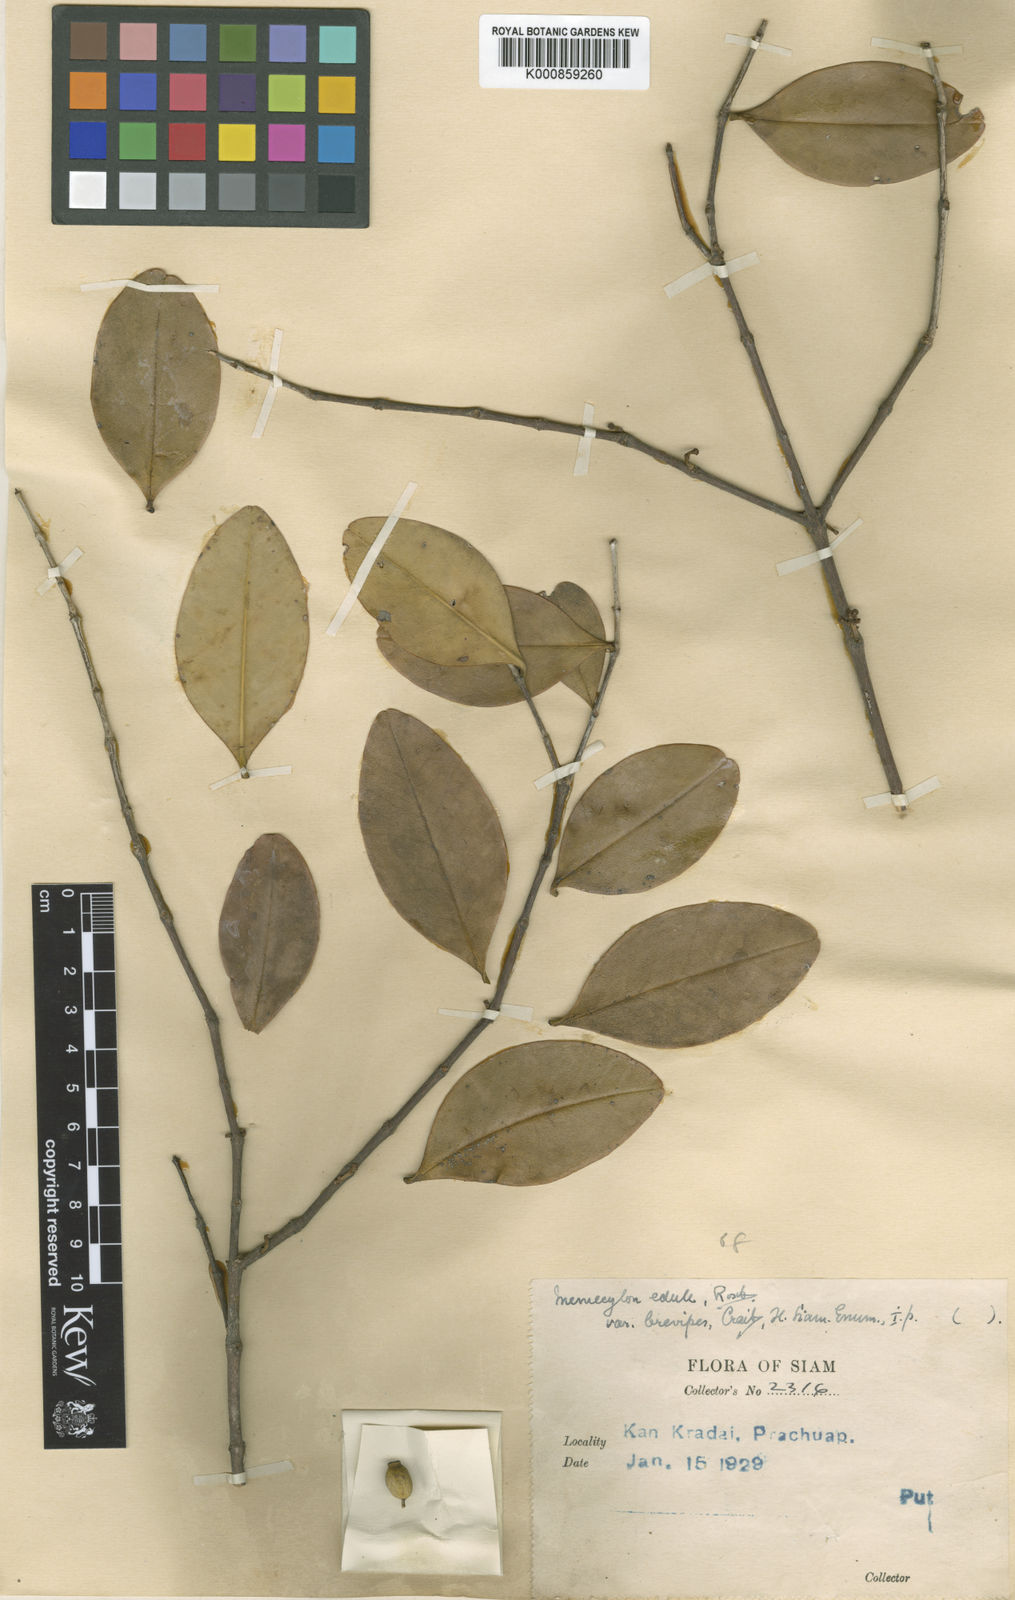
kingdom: Plantae
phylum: Tracheophyta
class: Magnoliopsida
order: Myrtales
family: Melastomataceae
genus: Memecylon
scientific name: Memecylon edule
